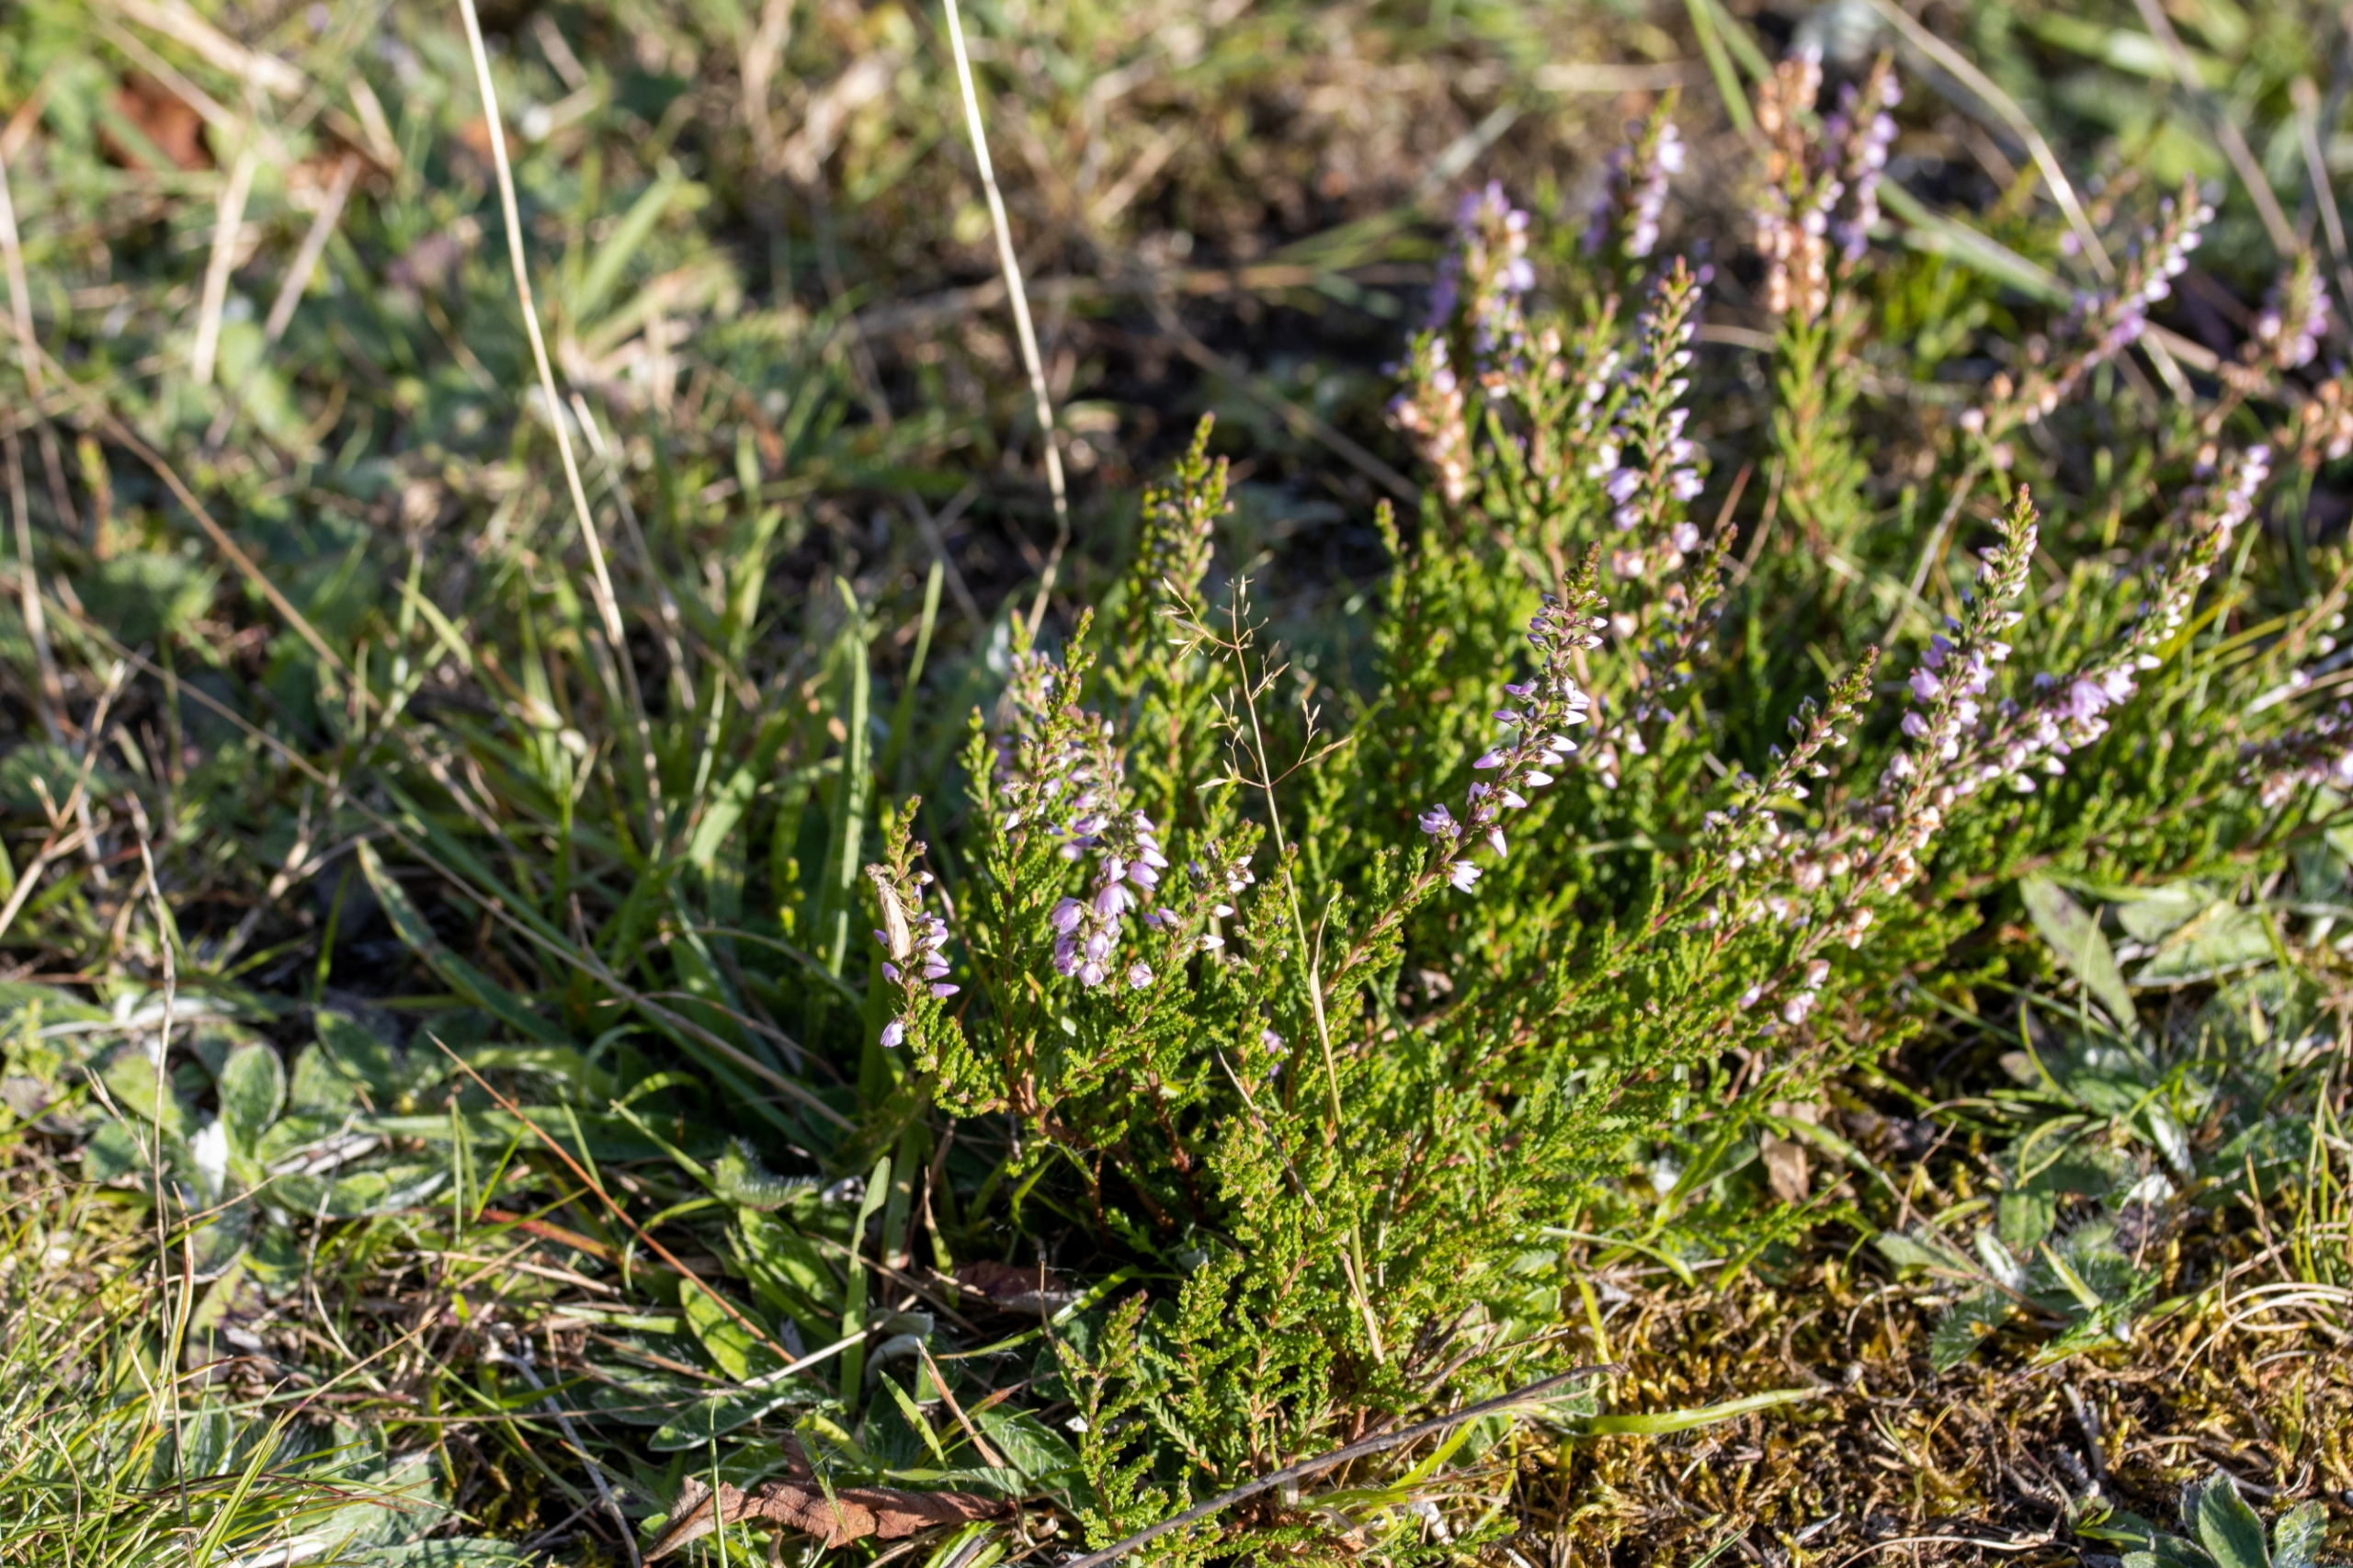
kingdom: Plantae
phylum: Tracheophyta
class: Magnoliopsida
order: Ericales
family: Ericaceae
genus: Calluna
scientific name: Calluna vulgaris
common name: Hedelyng
